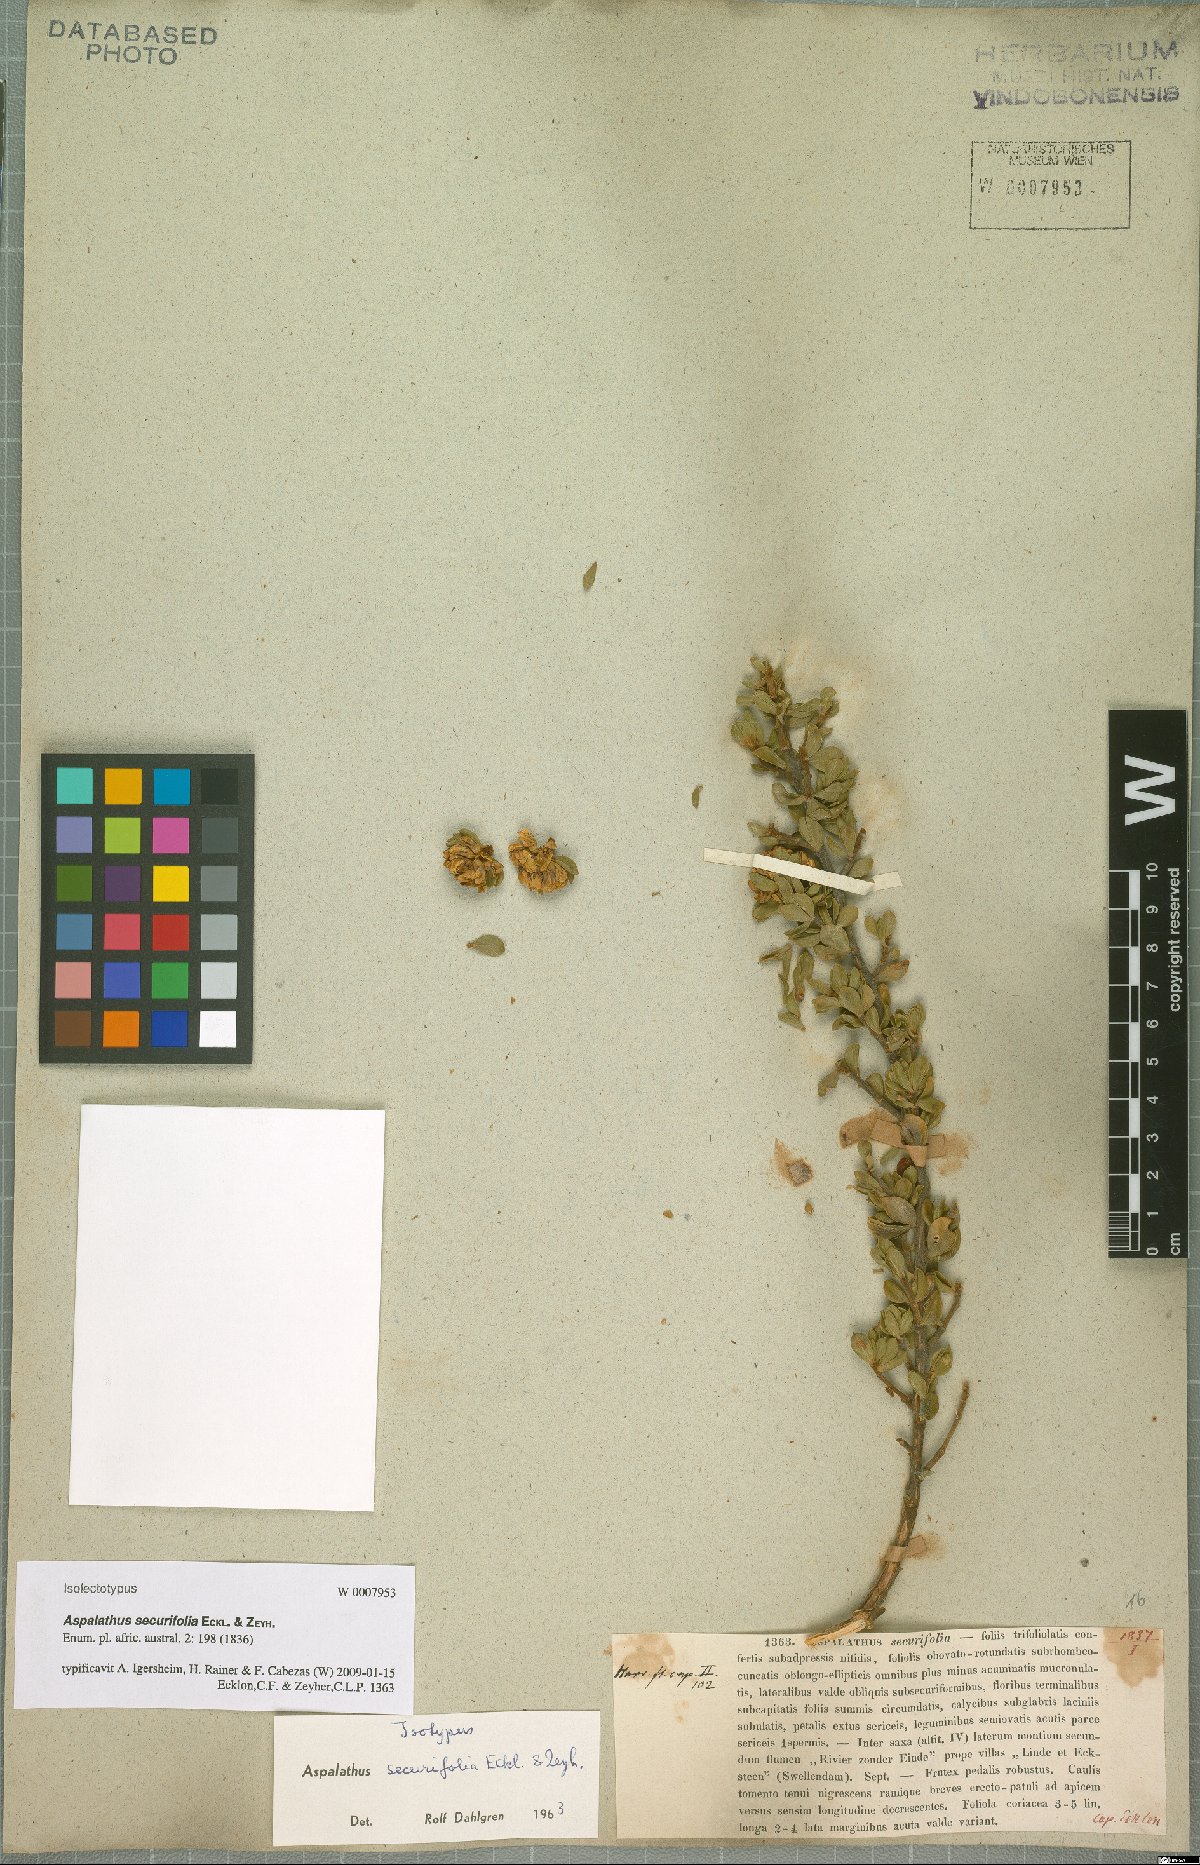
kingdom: Plantae
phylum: Tracheophyta
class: Magnoliopsida
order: Fabales
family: Fabaceae
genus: Aspalathus
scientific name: Aspalathus securifolia
